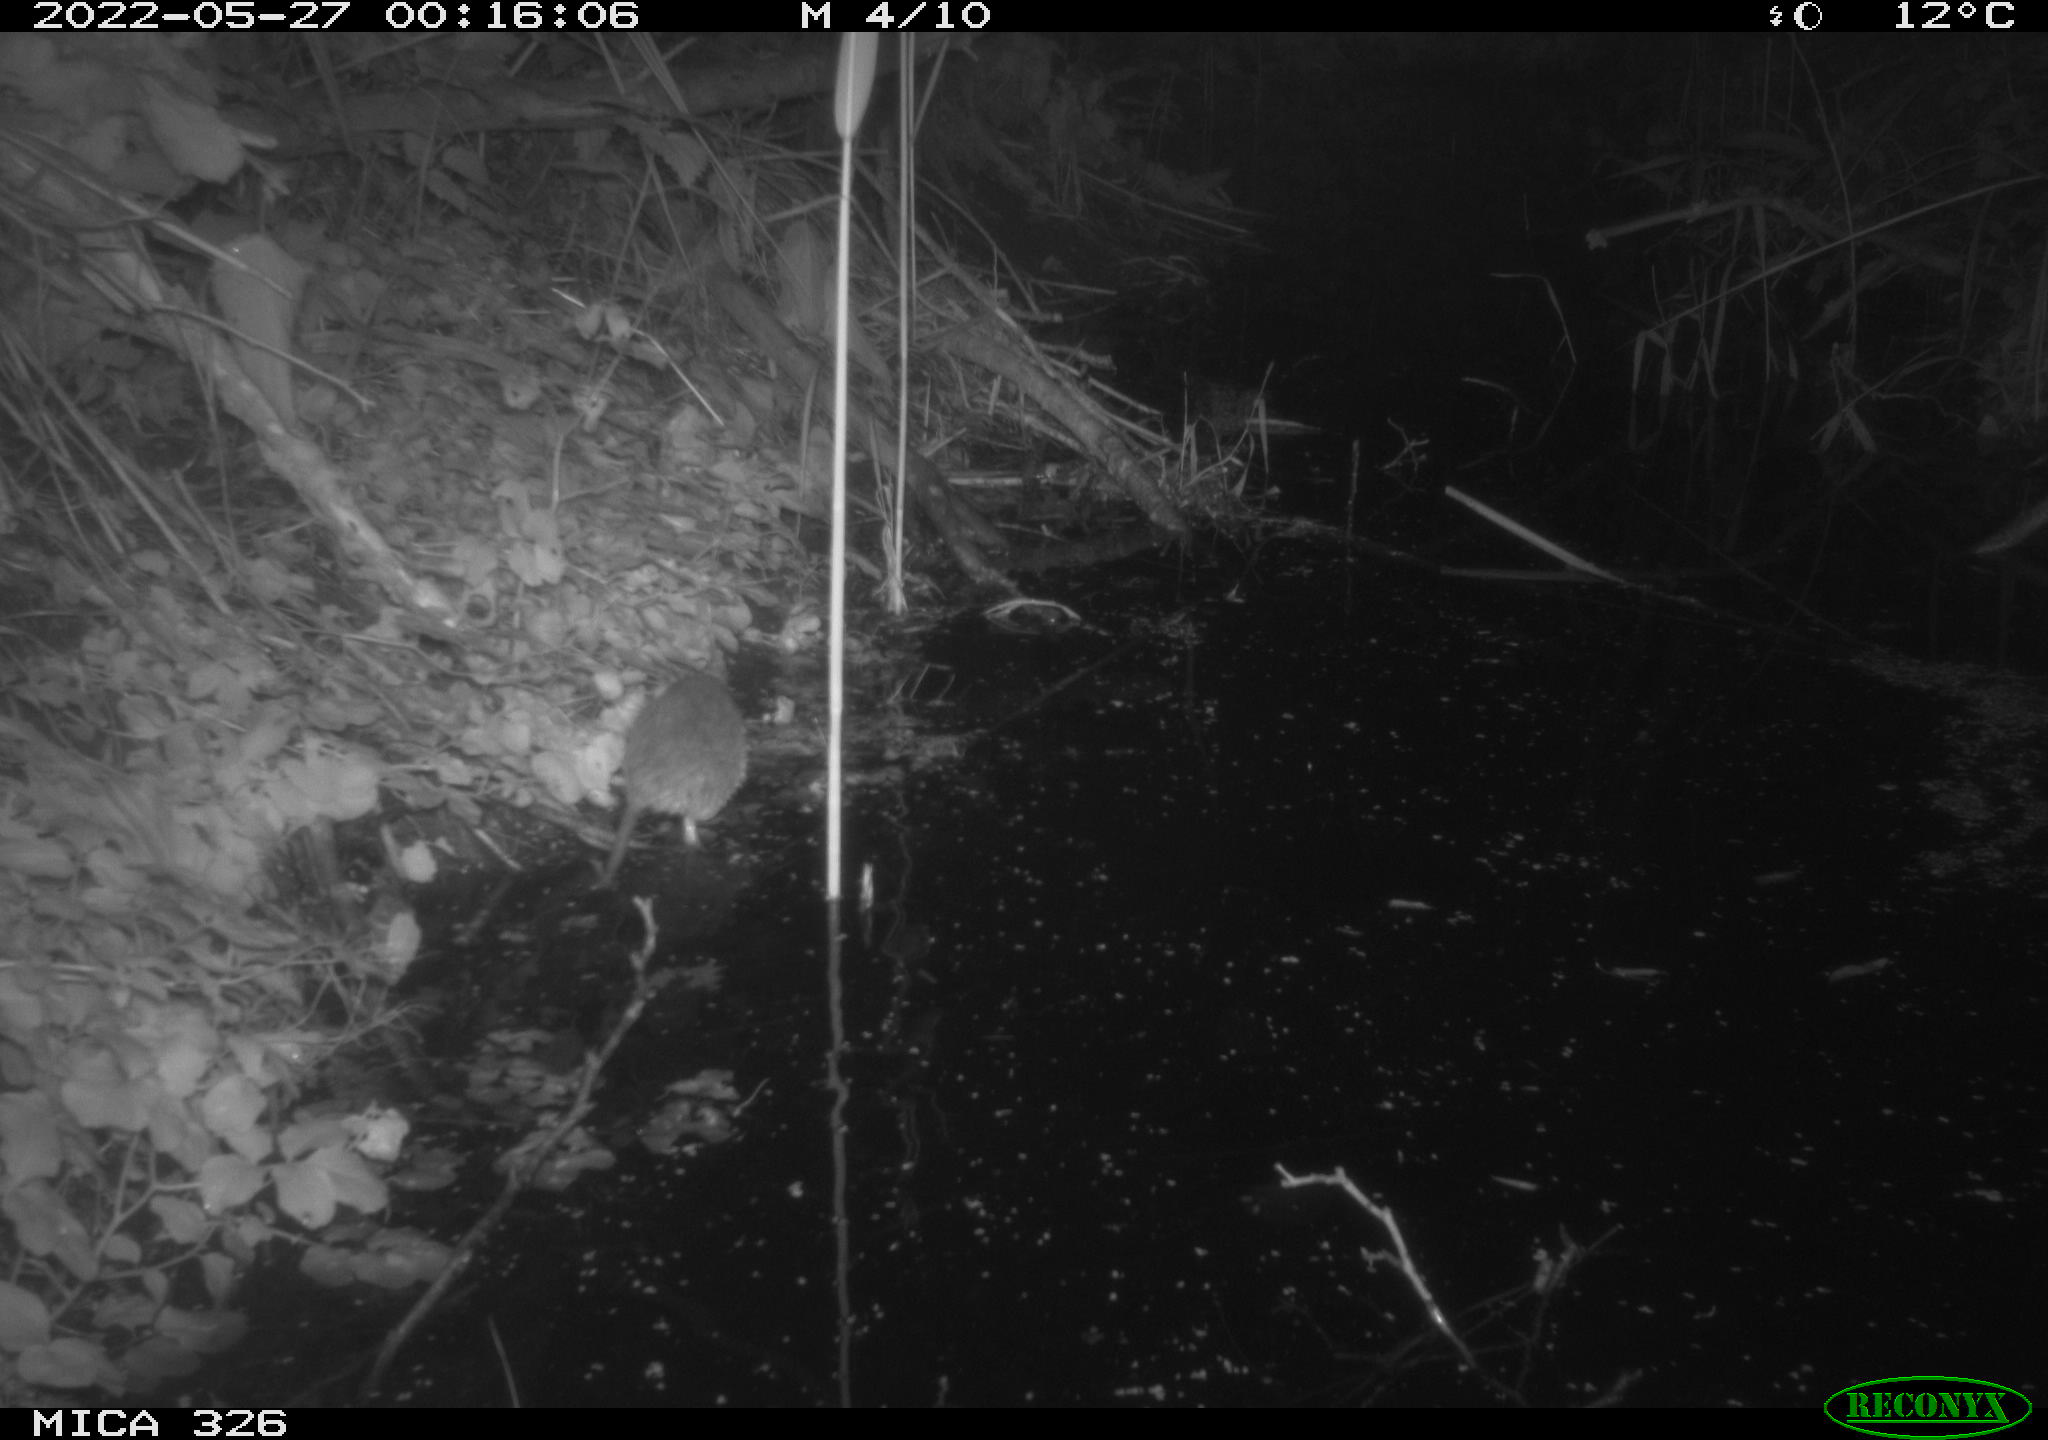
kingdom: Animalia
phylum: Chordata
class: Mammalia
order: Rodentia
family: Muridae
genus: Rattus
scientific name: Rattus norvegicus
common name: Brown rat
